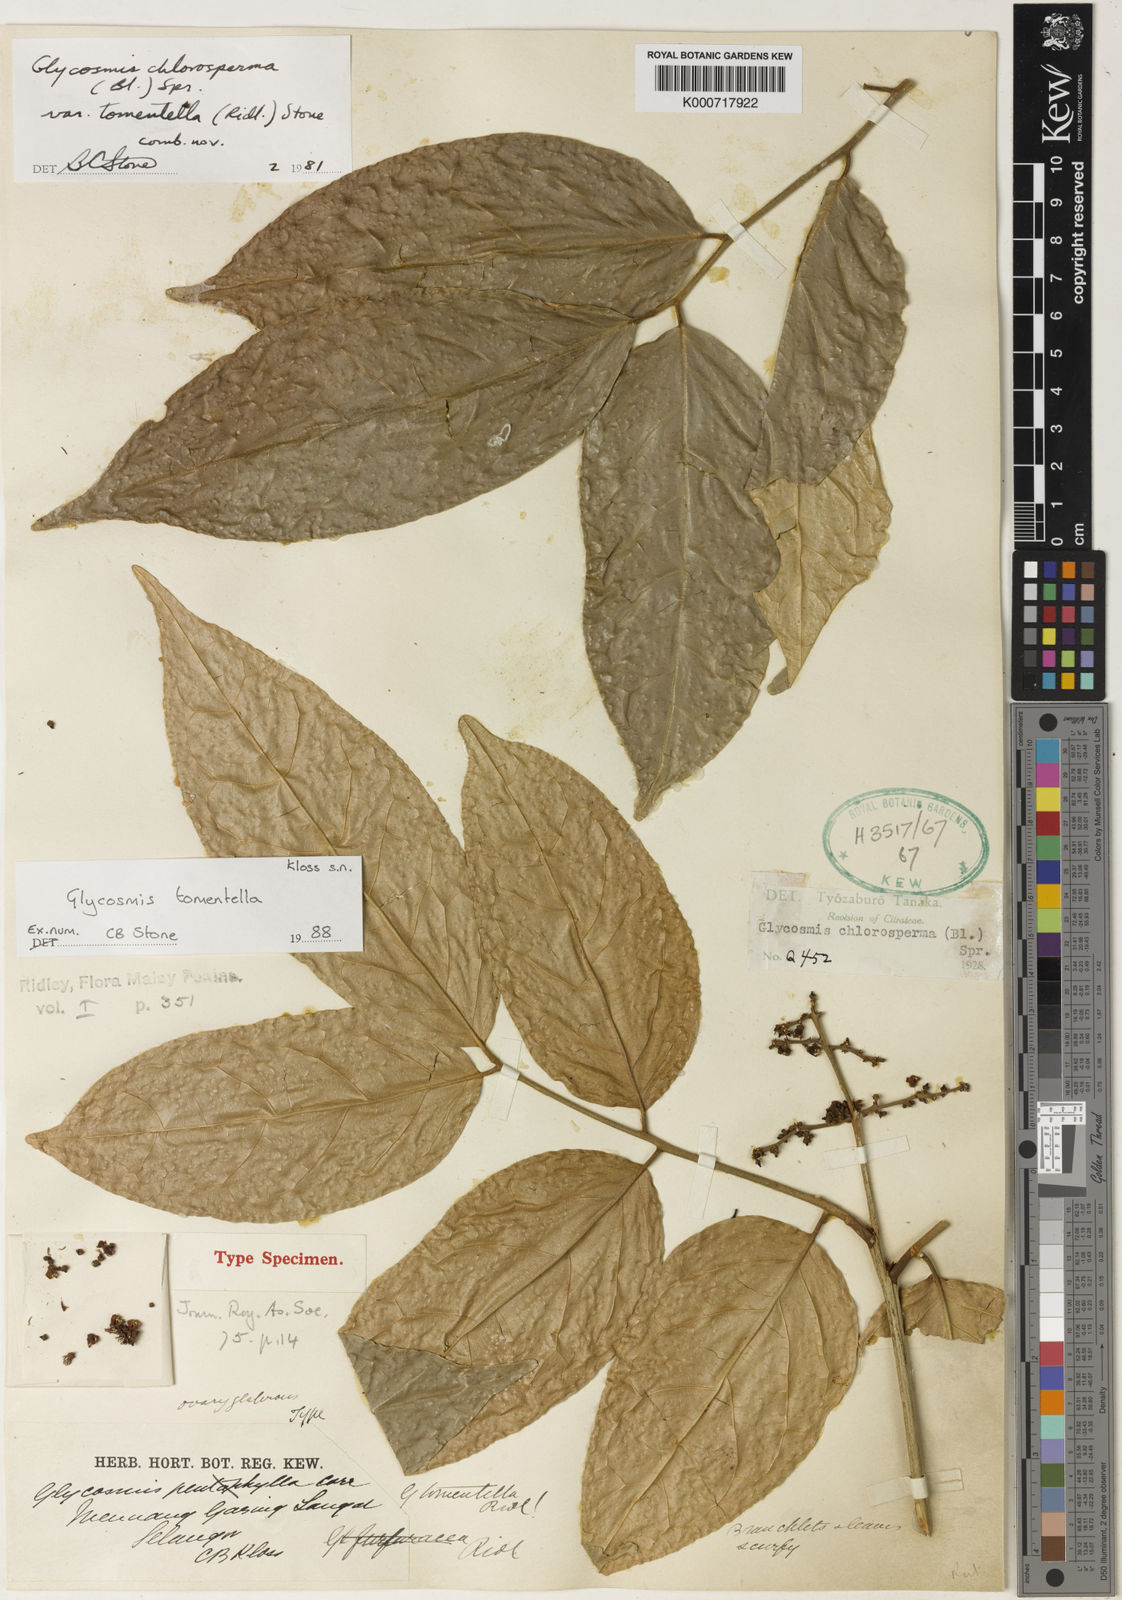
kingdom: Plantae
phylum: Tracheophyta
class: Magnoliopsida
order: Sapindales
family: Rutaceae
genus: Glycosmis
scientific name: Glycosmis tomentella
